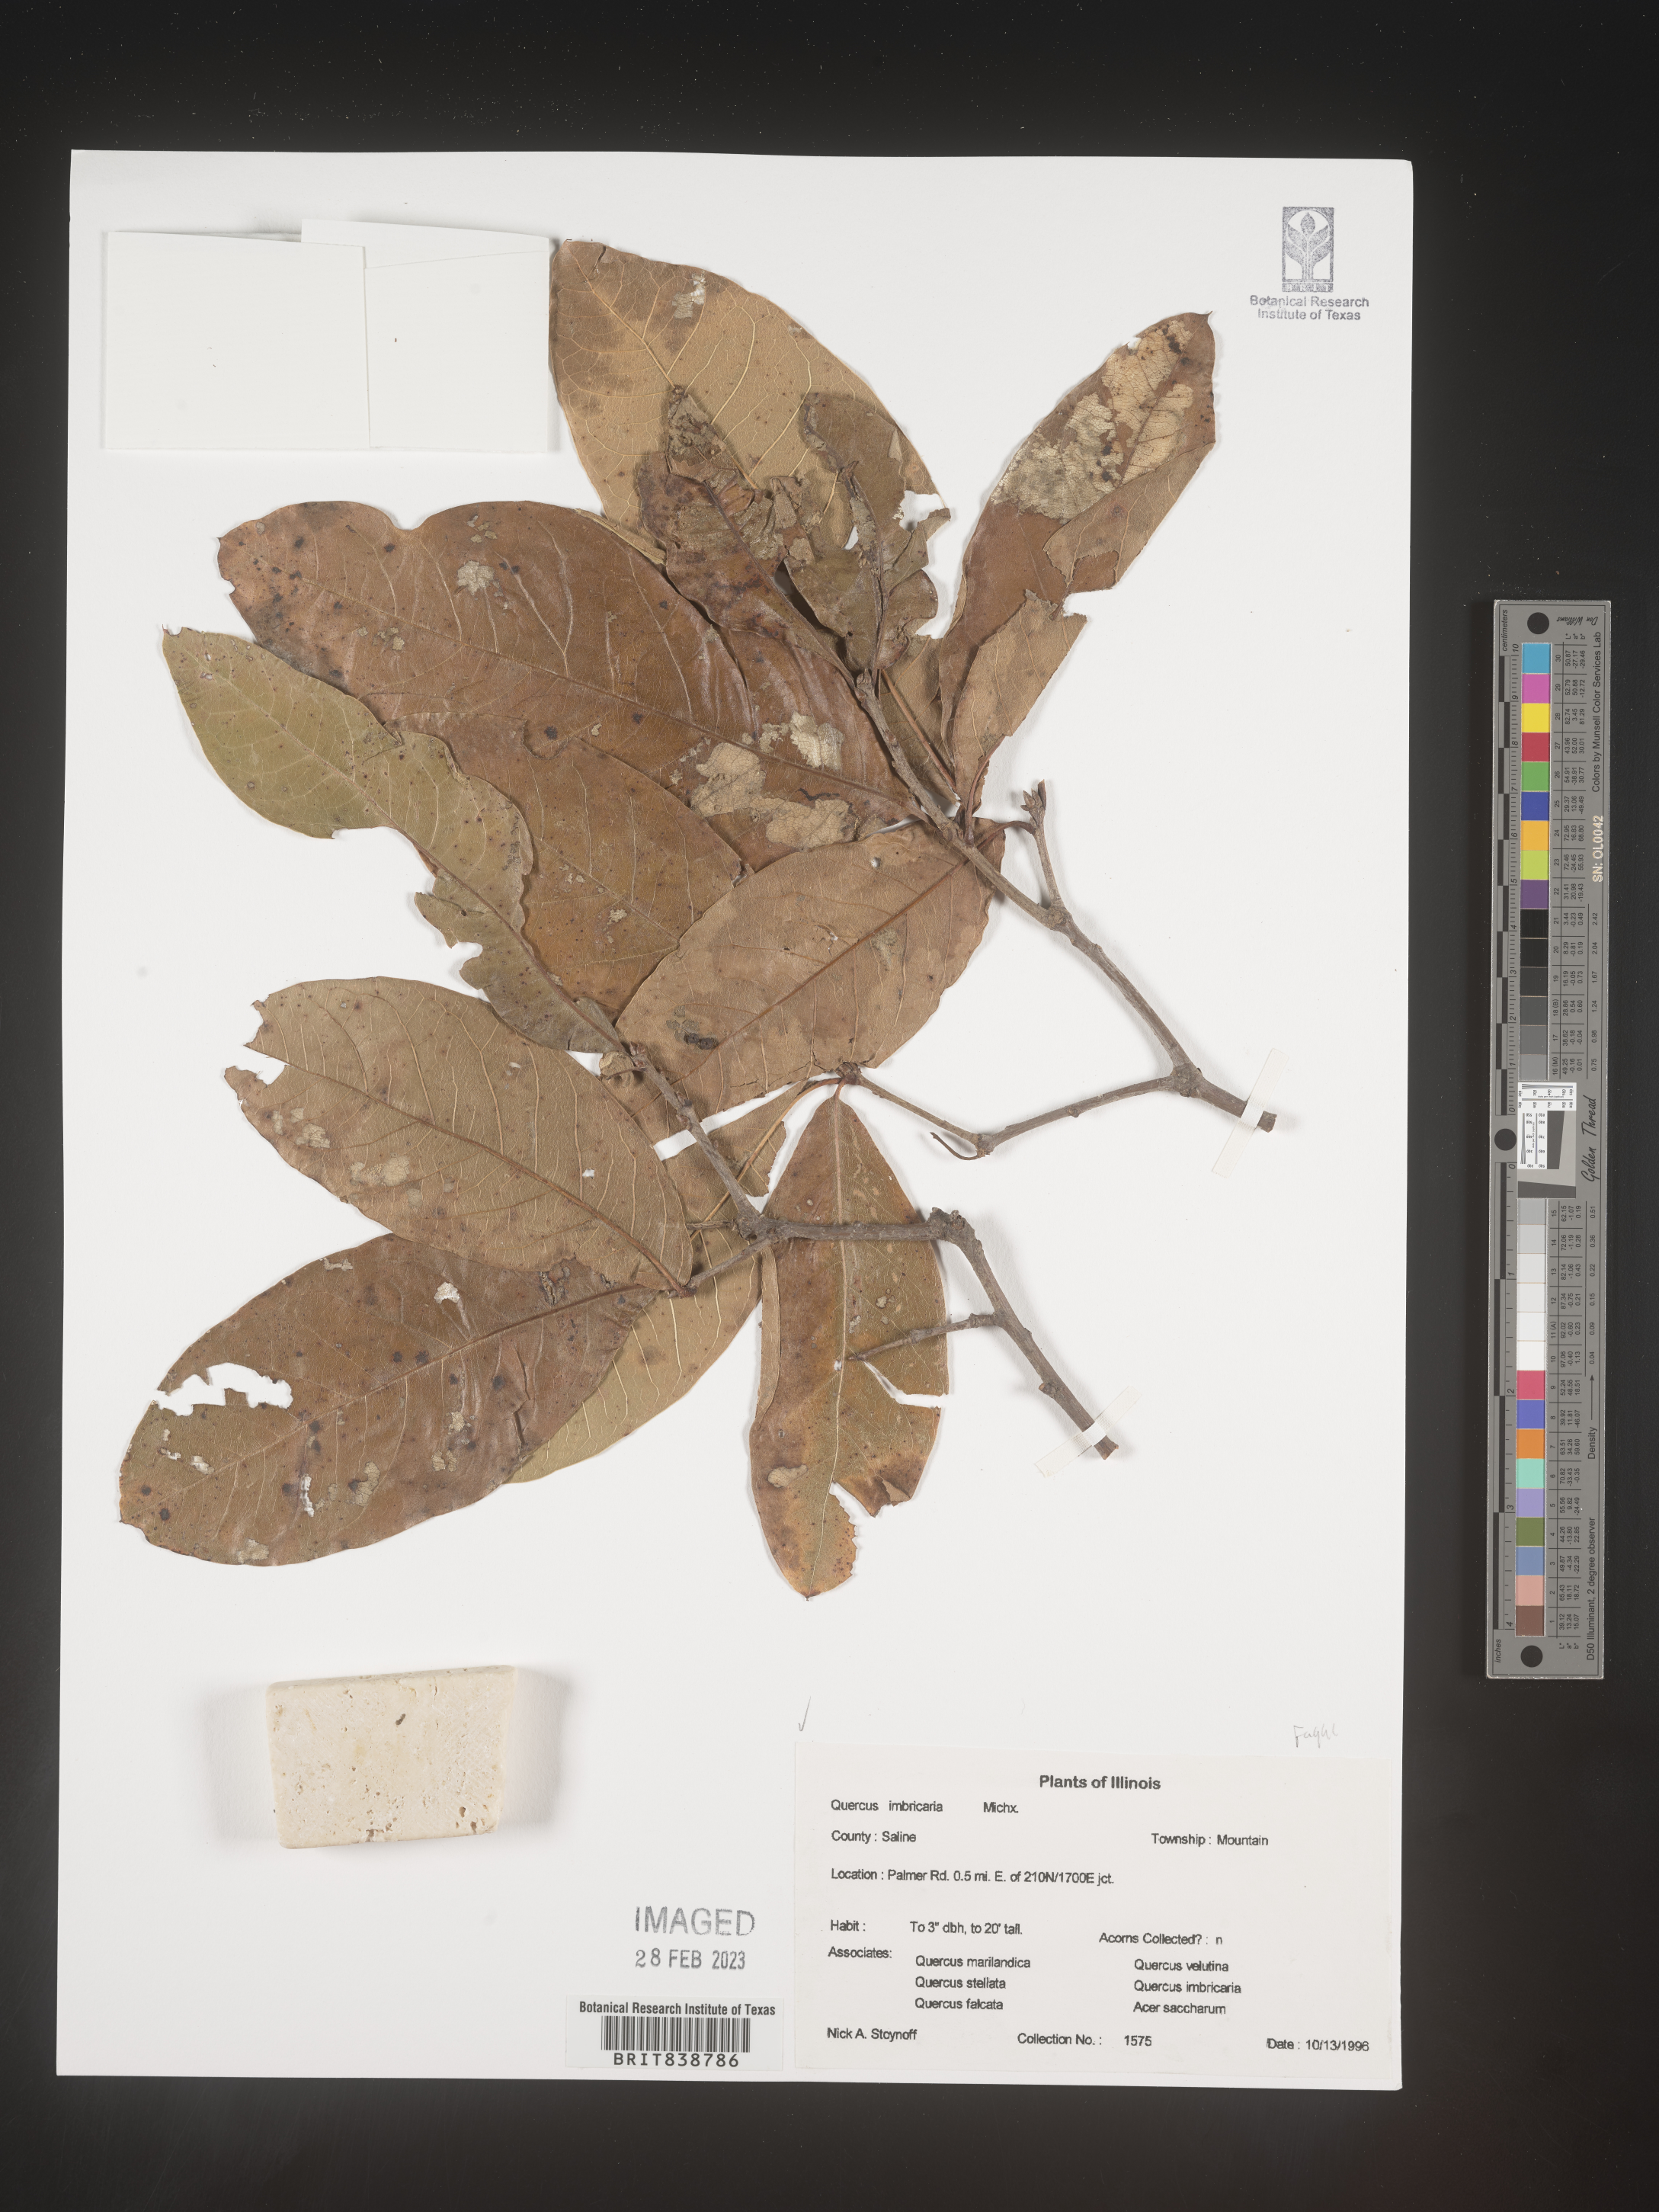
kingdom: Plantae
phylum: Tracheophyta
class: Magnoliopsida
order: Fagales
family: Fagaceae
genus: Quercus
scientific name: Quercus imbricaria
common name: Shingle oak
